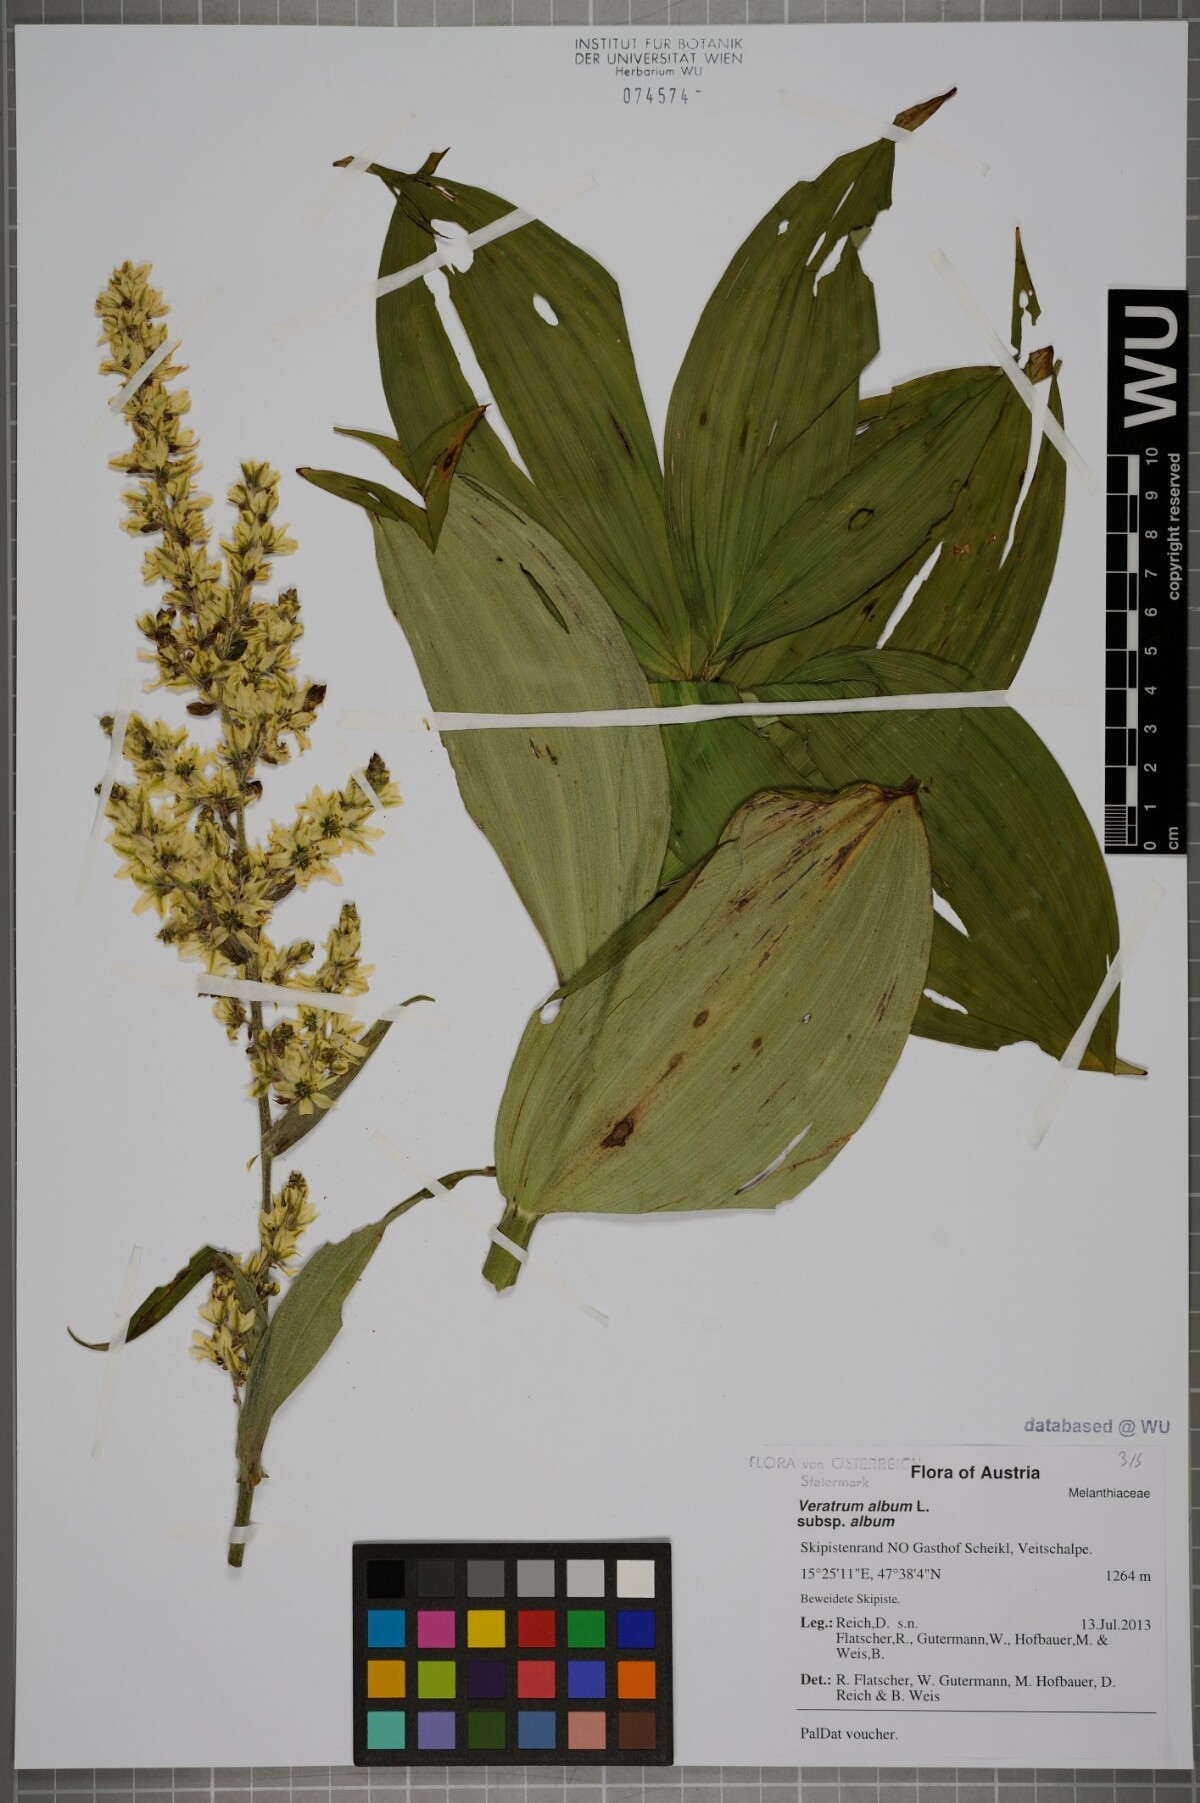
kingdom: Plantae
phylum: Tracheophyta
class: Liliopsida
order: Liliales
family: Melanthiaceae
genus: Veratrum
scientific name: Veratrum album
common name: White veratrum
